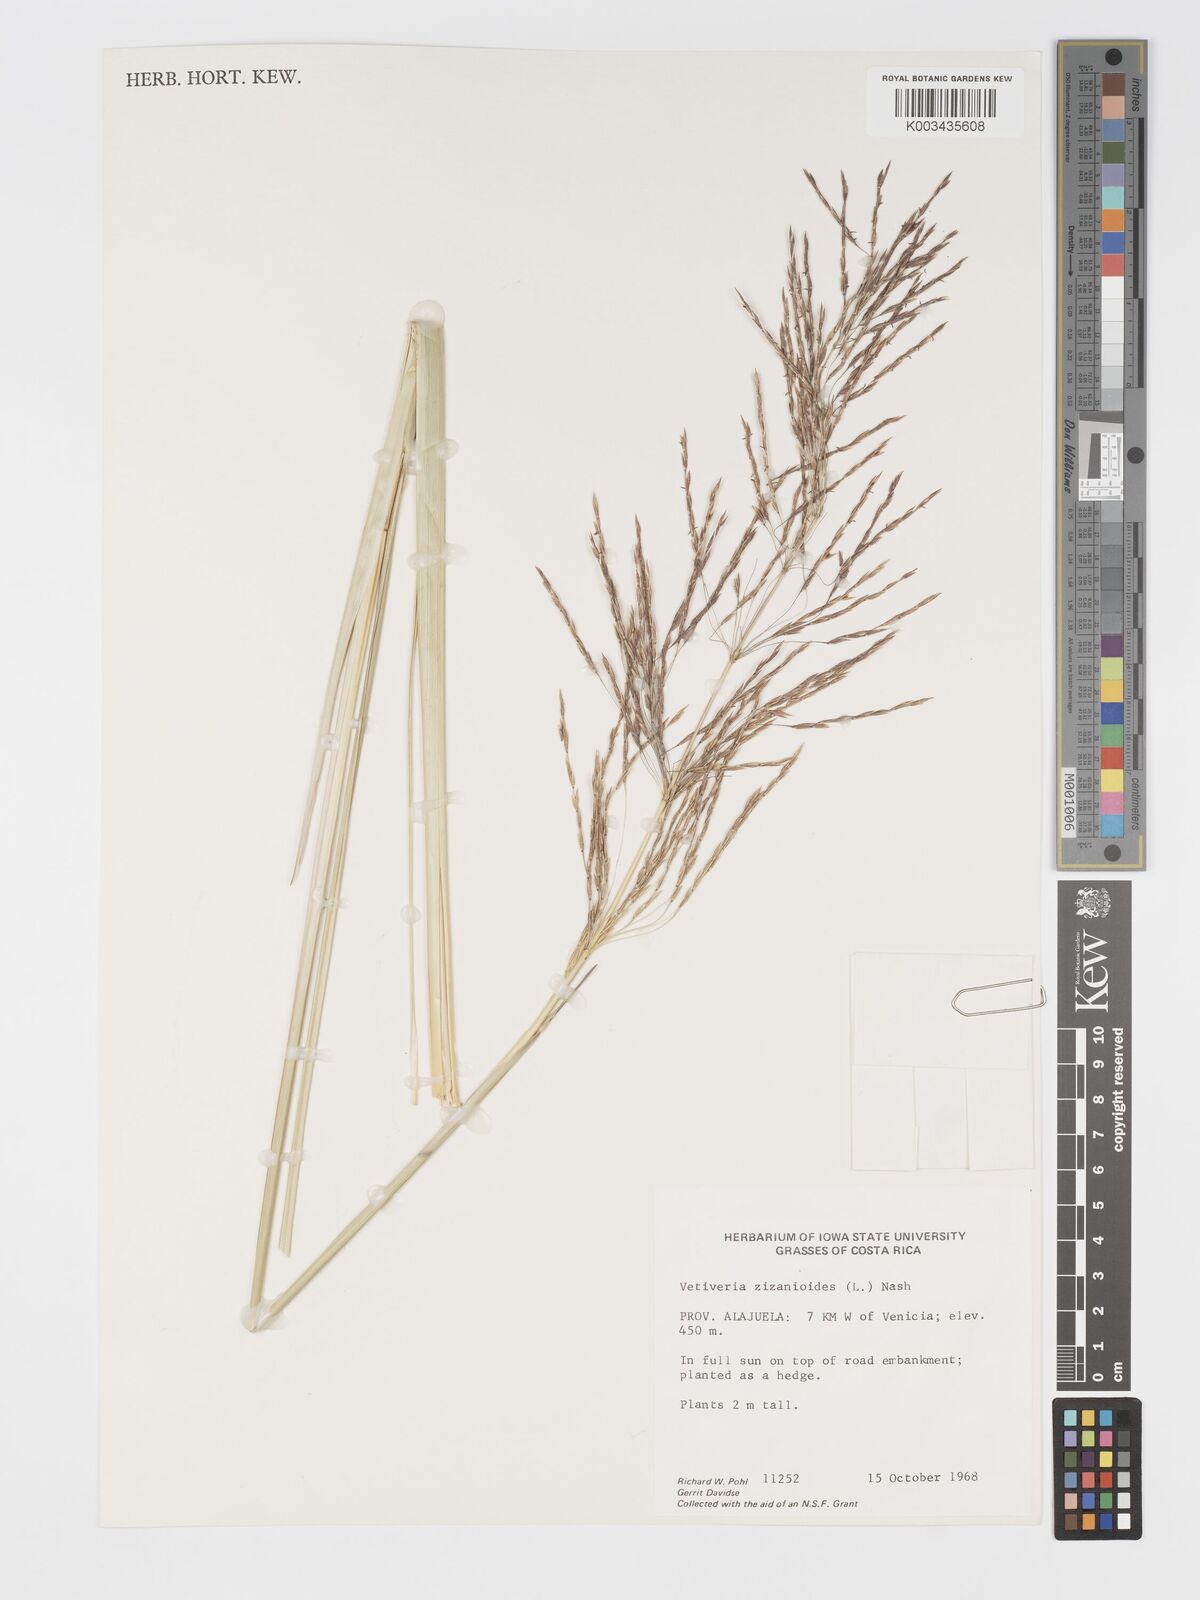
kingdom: Plantae
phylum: Tracheophyta
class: Liliopsida
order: Poales
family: Poaceae
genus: Chrysopogon
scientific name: Chrysopogon zizanioides
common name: False beardgrass
